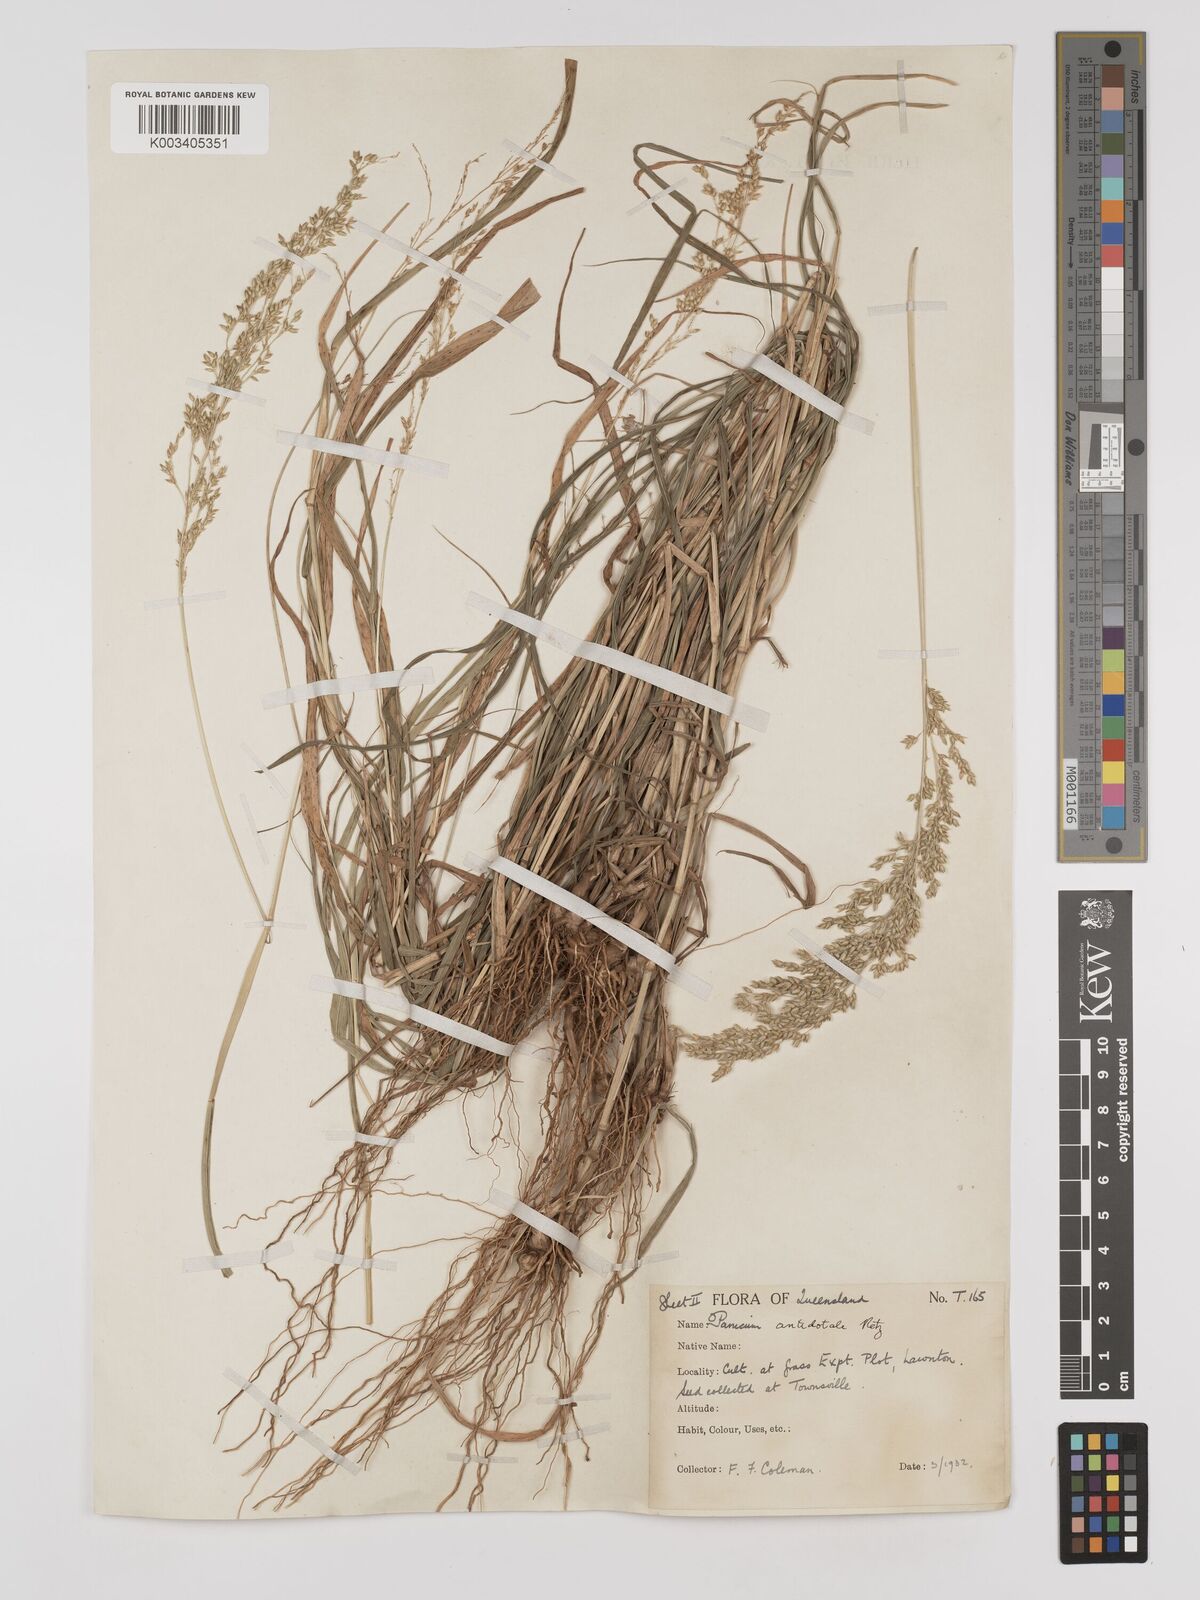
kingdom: Plantae
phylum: Tracheophyta
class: Liliopsida
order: Poales
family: Poaceae
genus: Panicum
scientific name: Panicum antidotale
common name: Blue panicum
